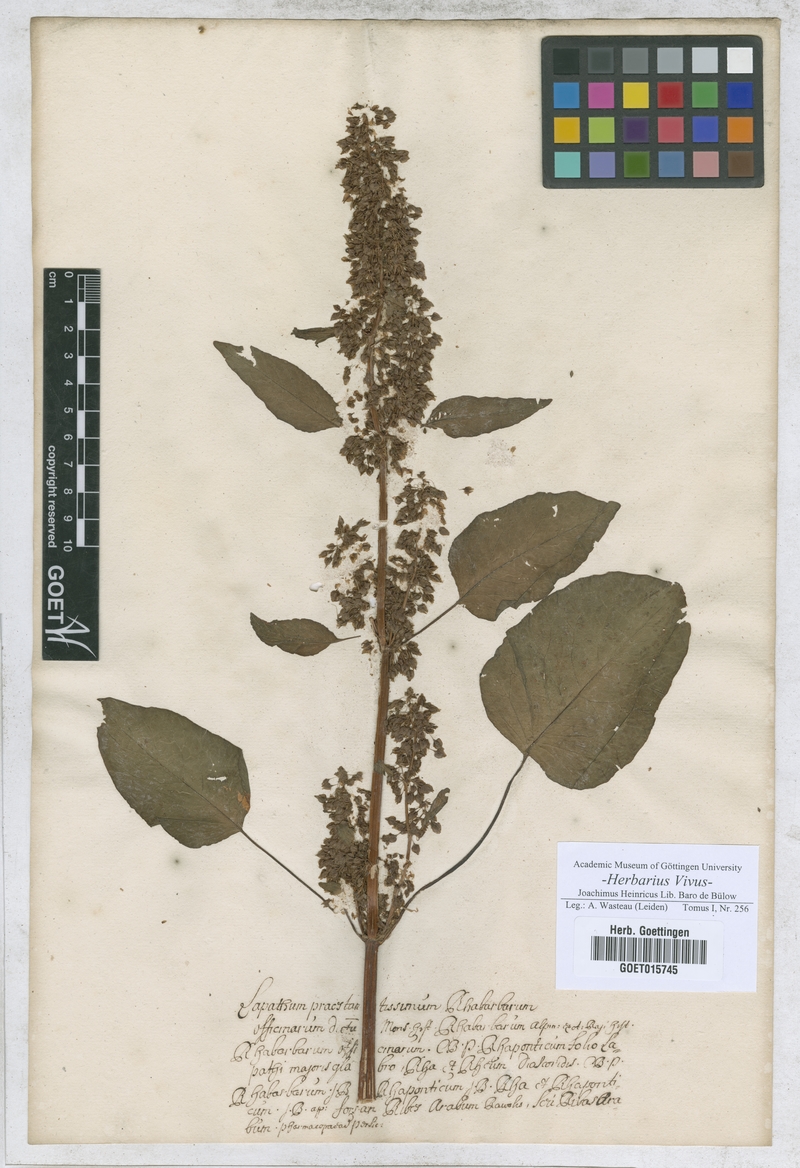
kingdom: Plantae
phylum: Tracheophyta
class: Magnoliopsida
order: Caryophyllales
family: Polygonaceae
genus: Lapathum
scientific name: Lapathum
